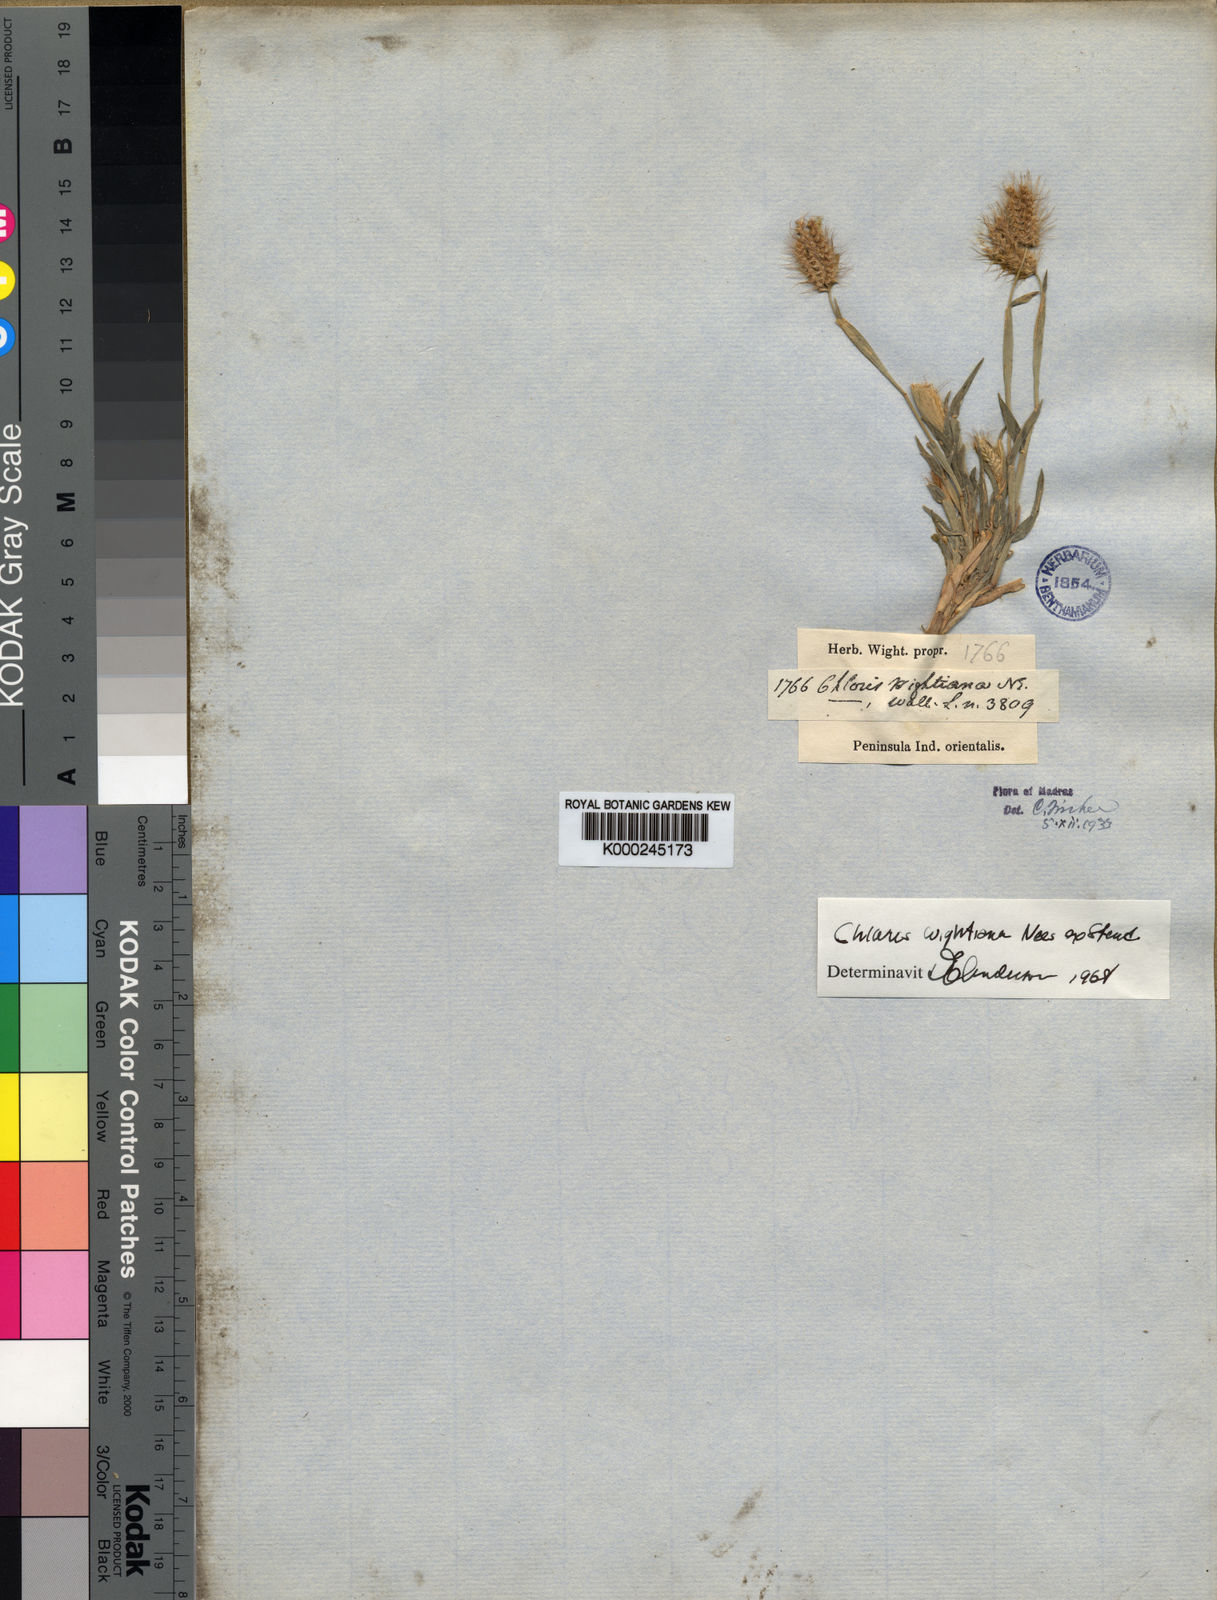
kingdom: Plantae
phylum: Tracheophyta
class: Liliopsida
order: Poales
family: Poaceae
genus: Chloris
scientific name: Chloris wightiana
